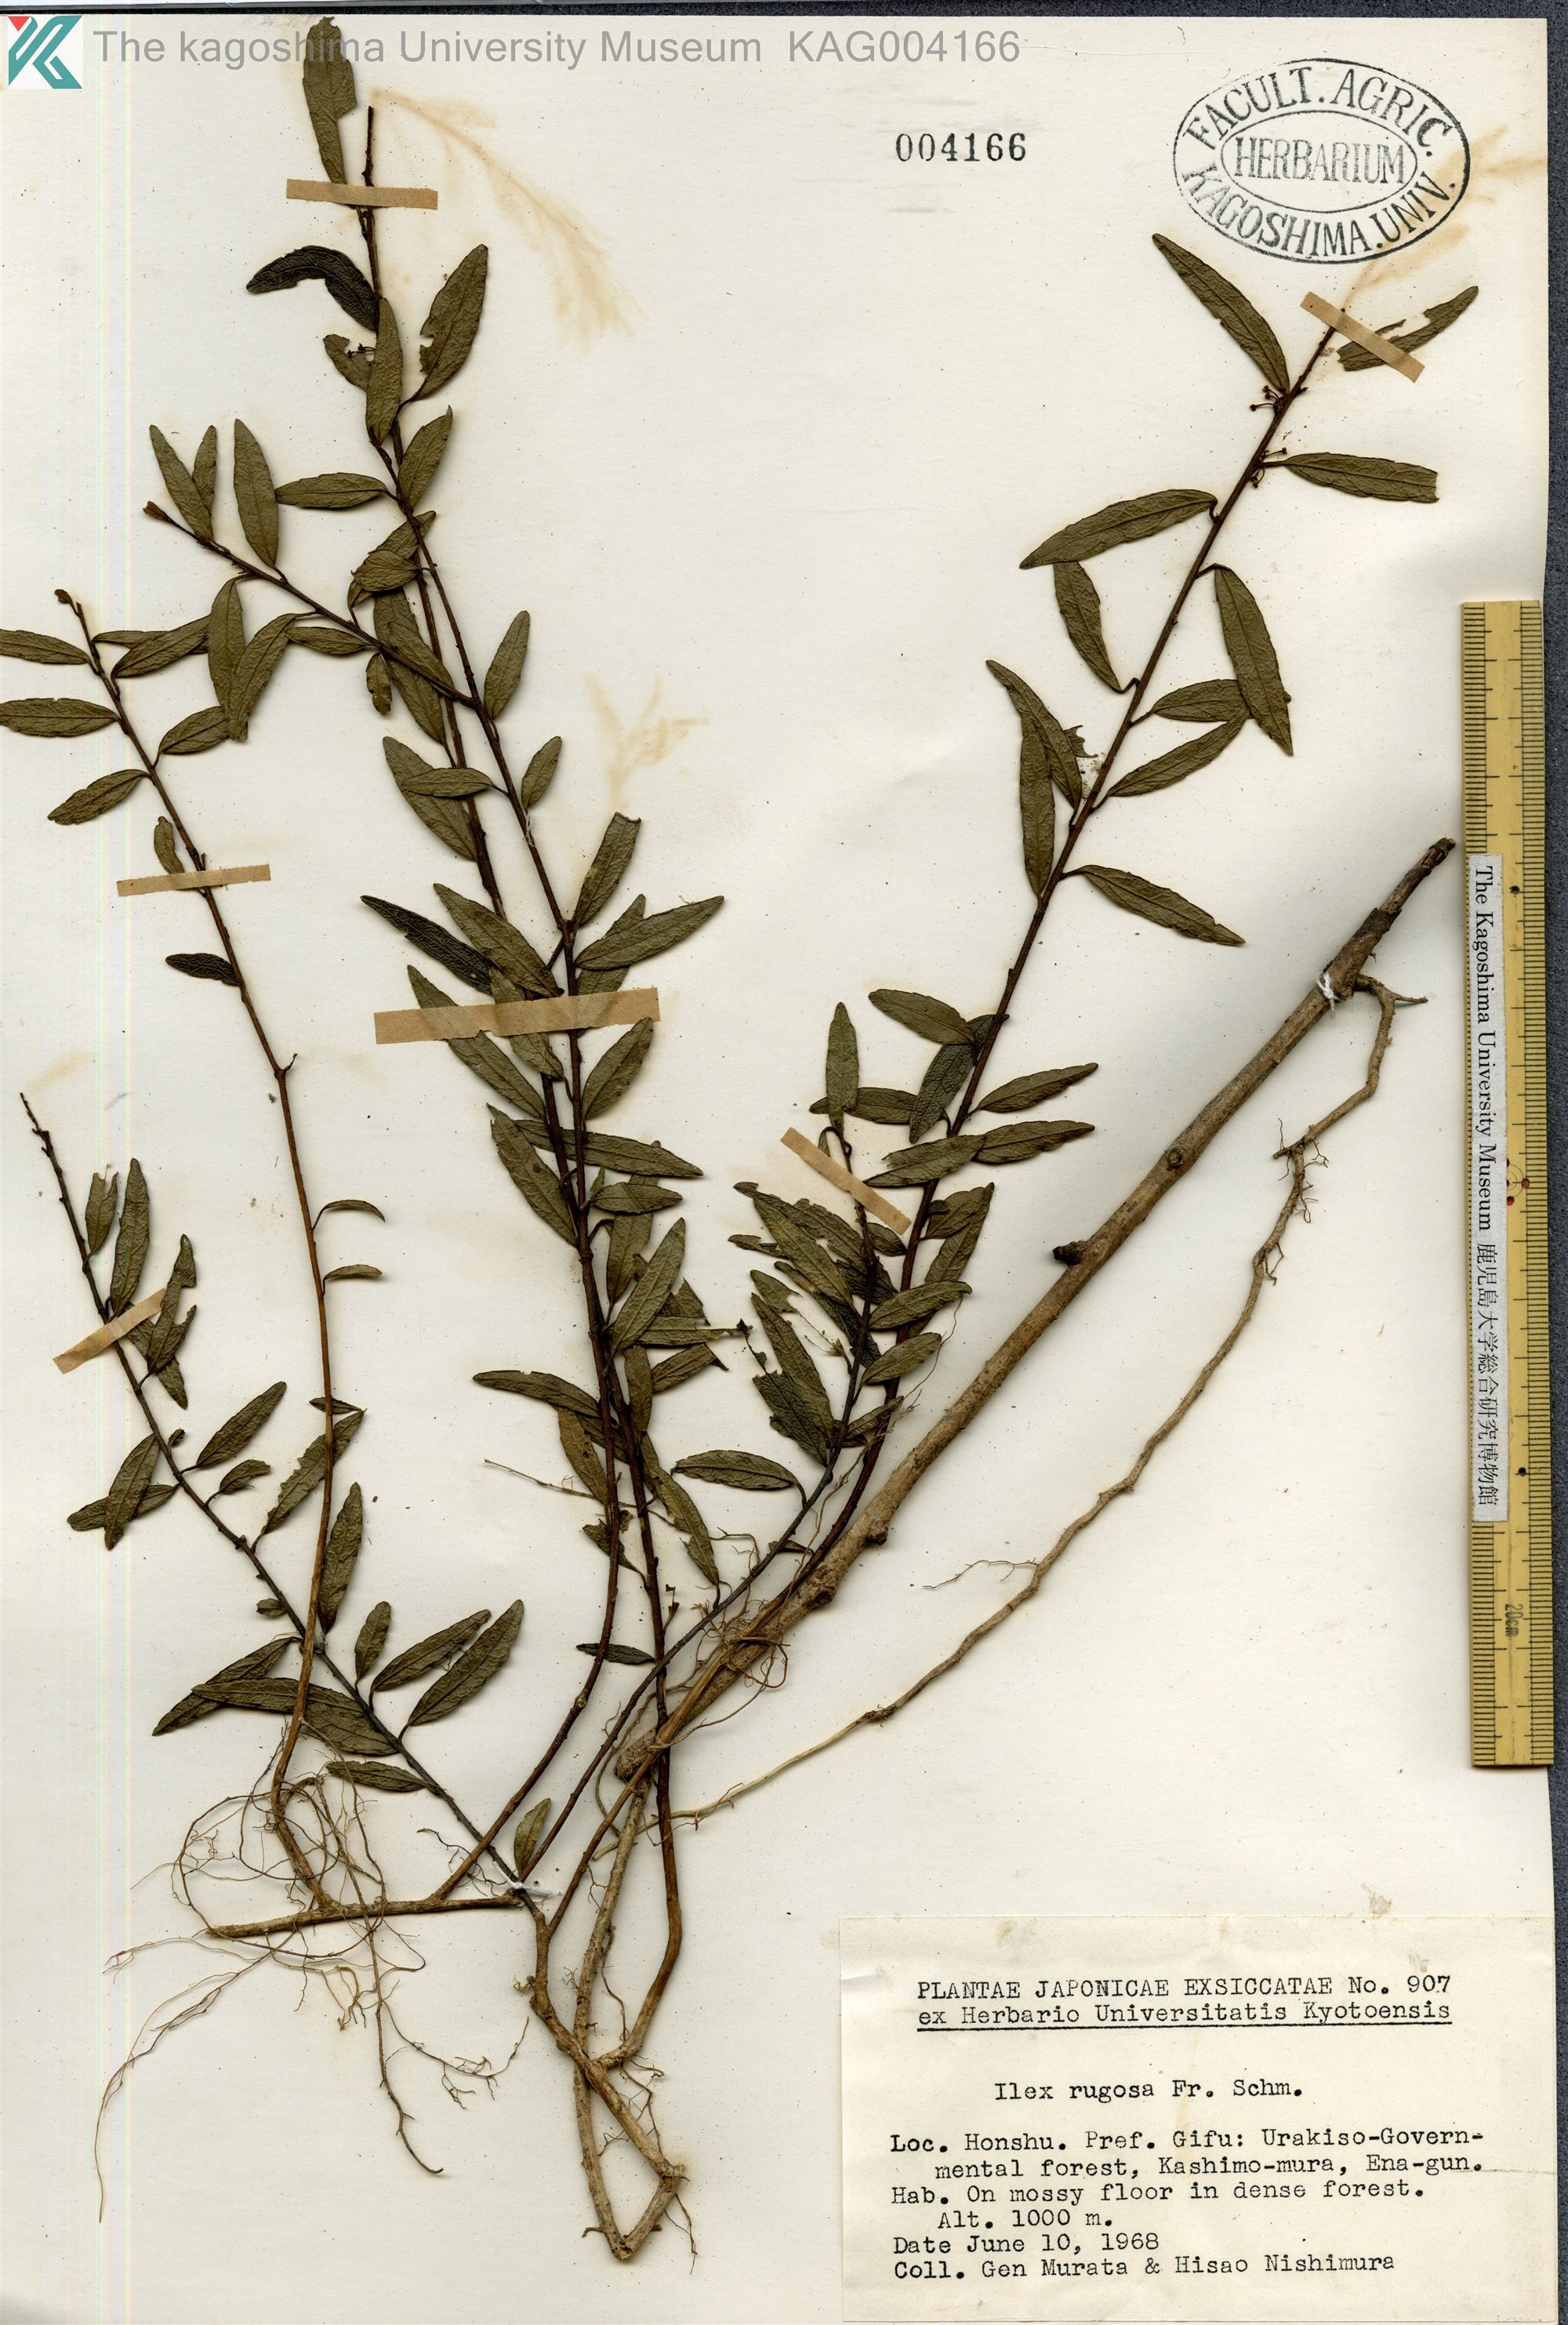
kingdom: Plantae
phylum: Tracheophyta
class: Magnoliopsida
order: Aquifoliales
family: Aquifoliaceae
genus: Ilex
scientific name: Ilex rugosa
